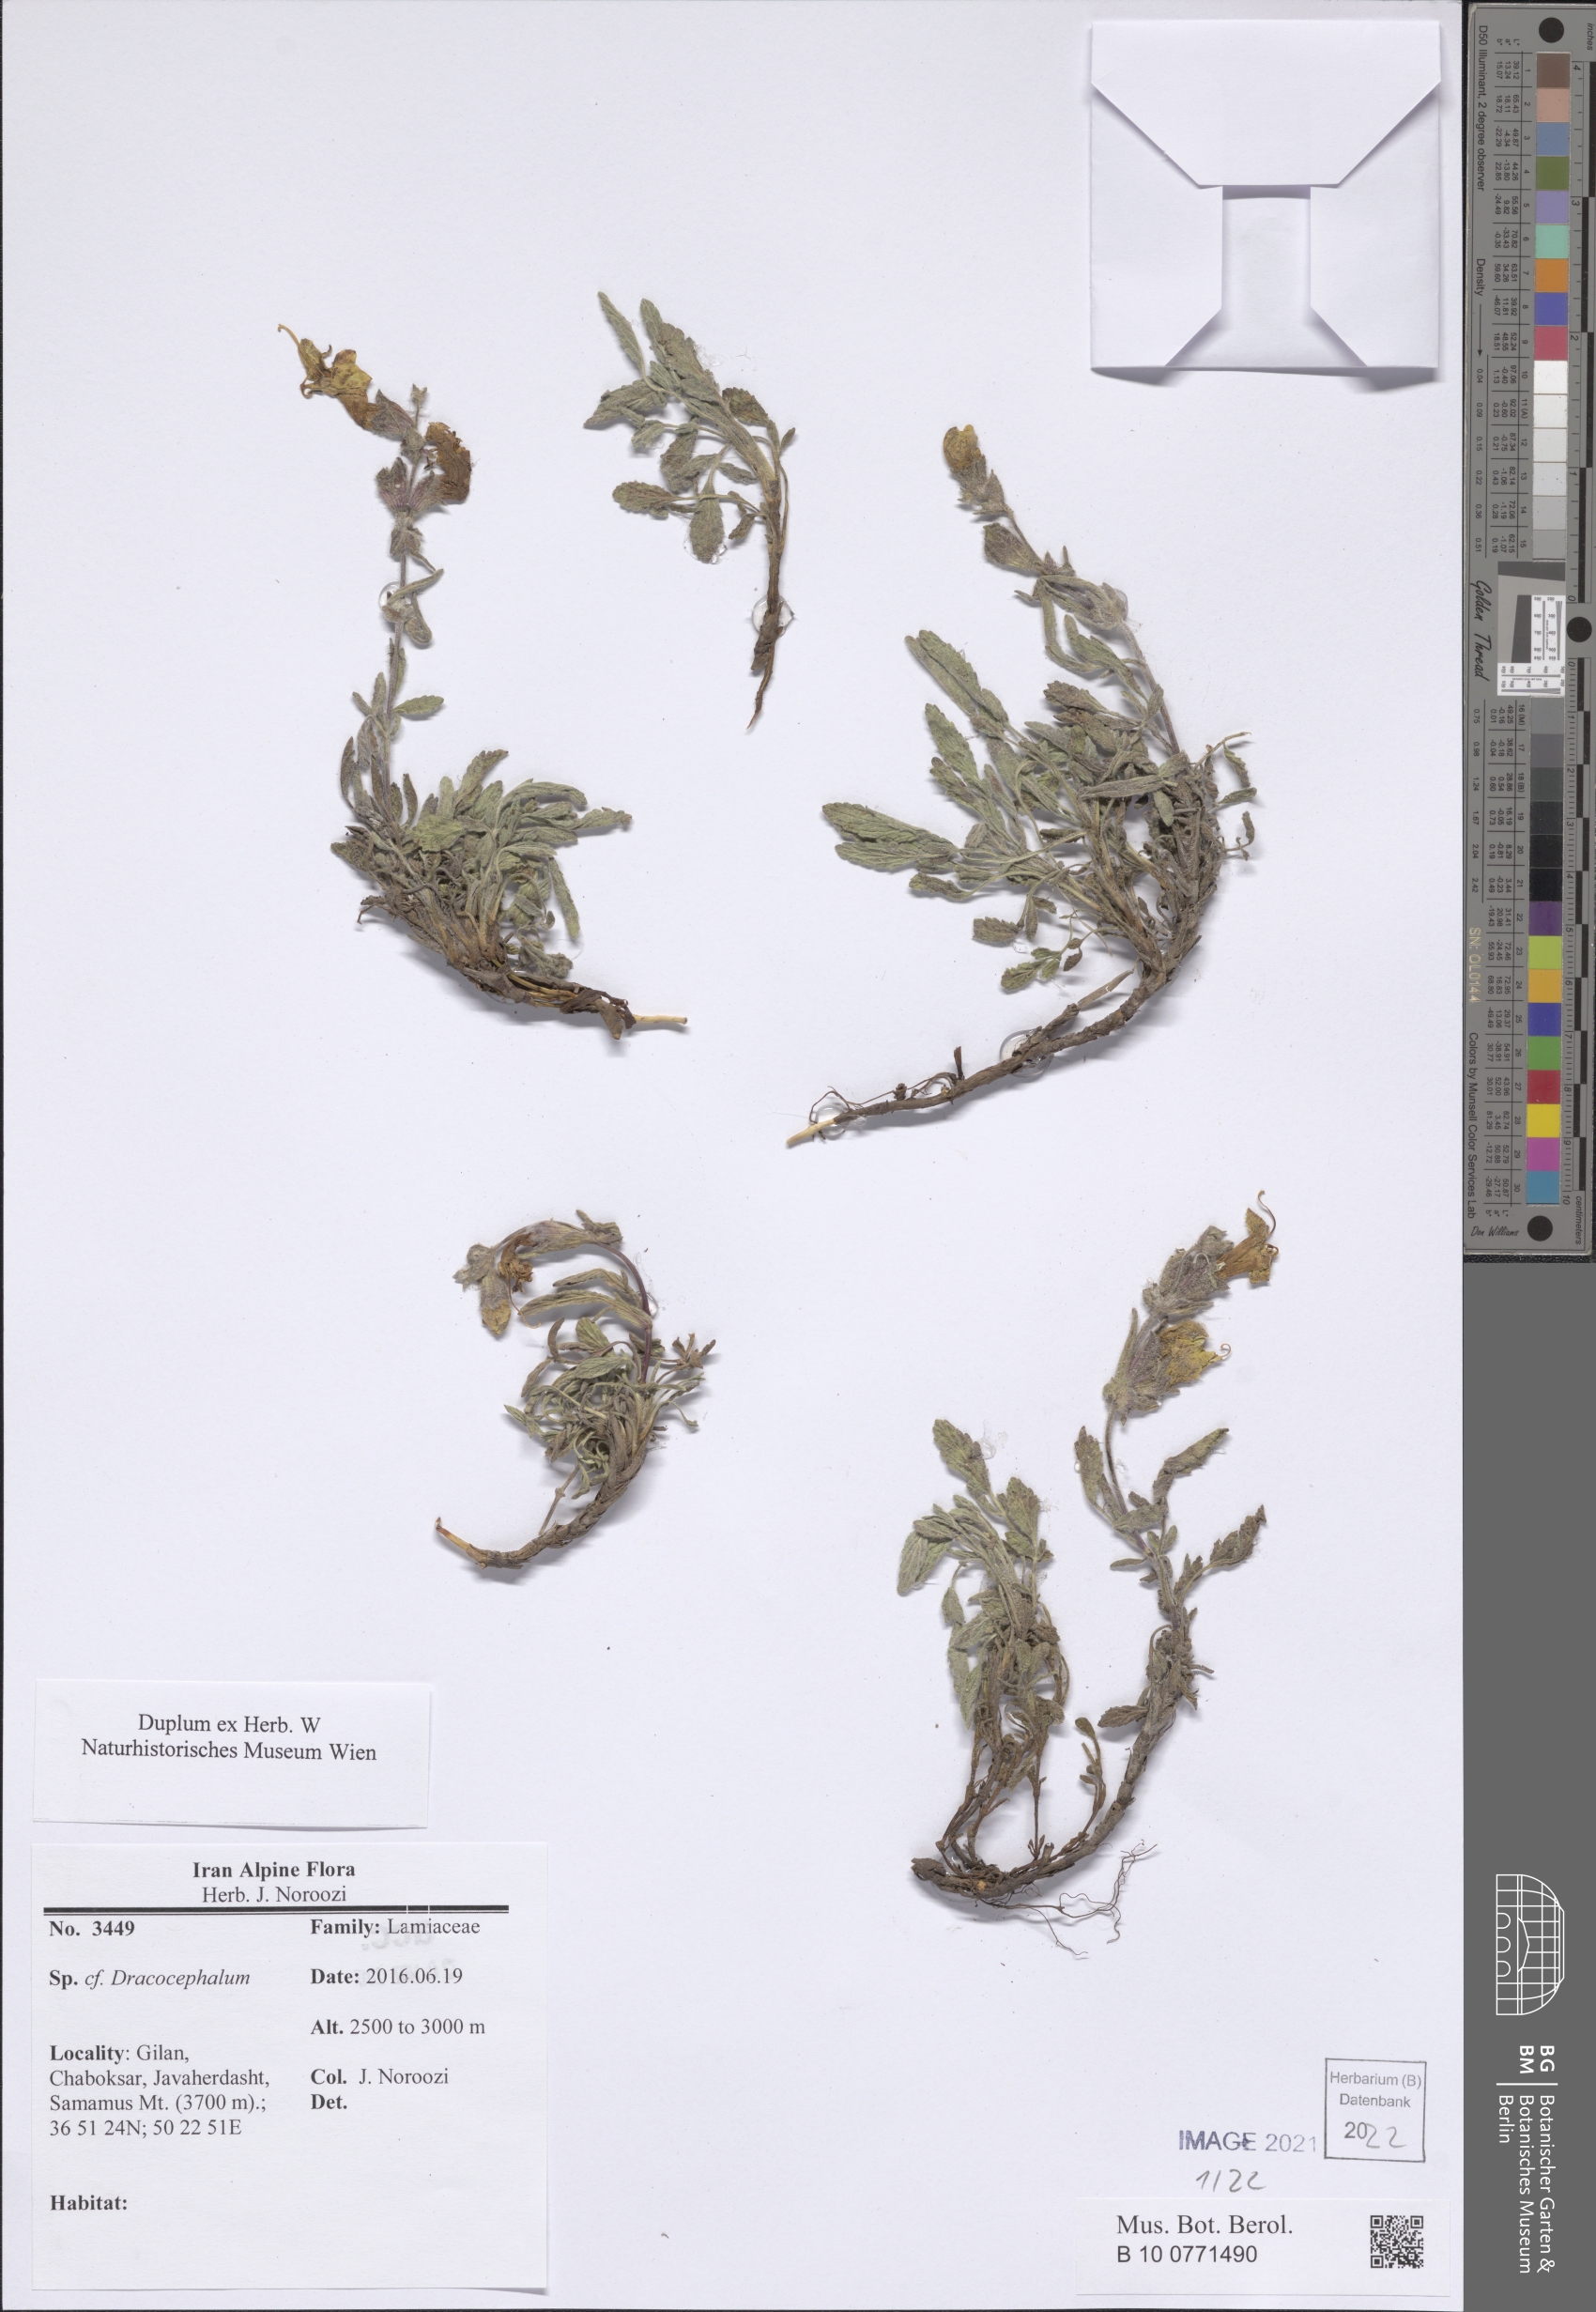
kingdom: Plantae
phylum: Tracheophyta
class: Magnoliopsida
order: Lamiales
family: Lamiaceae
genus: Dracocephalum
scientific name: Dracocephalum
